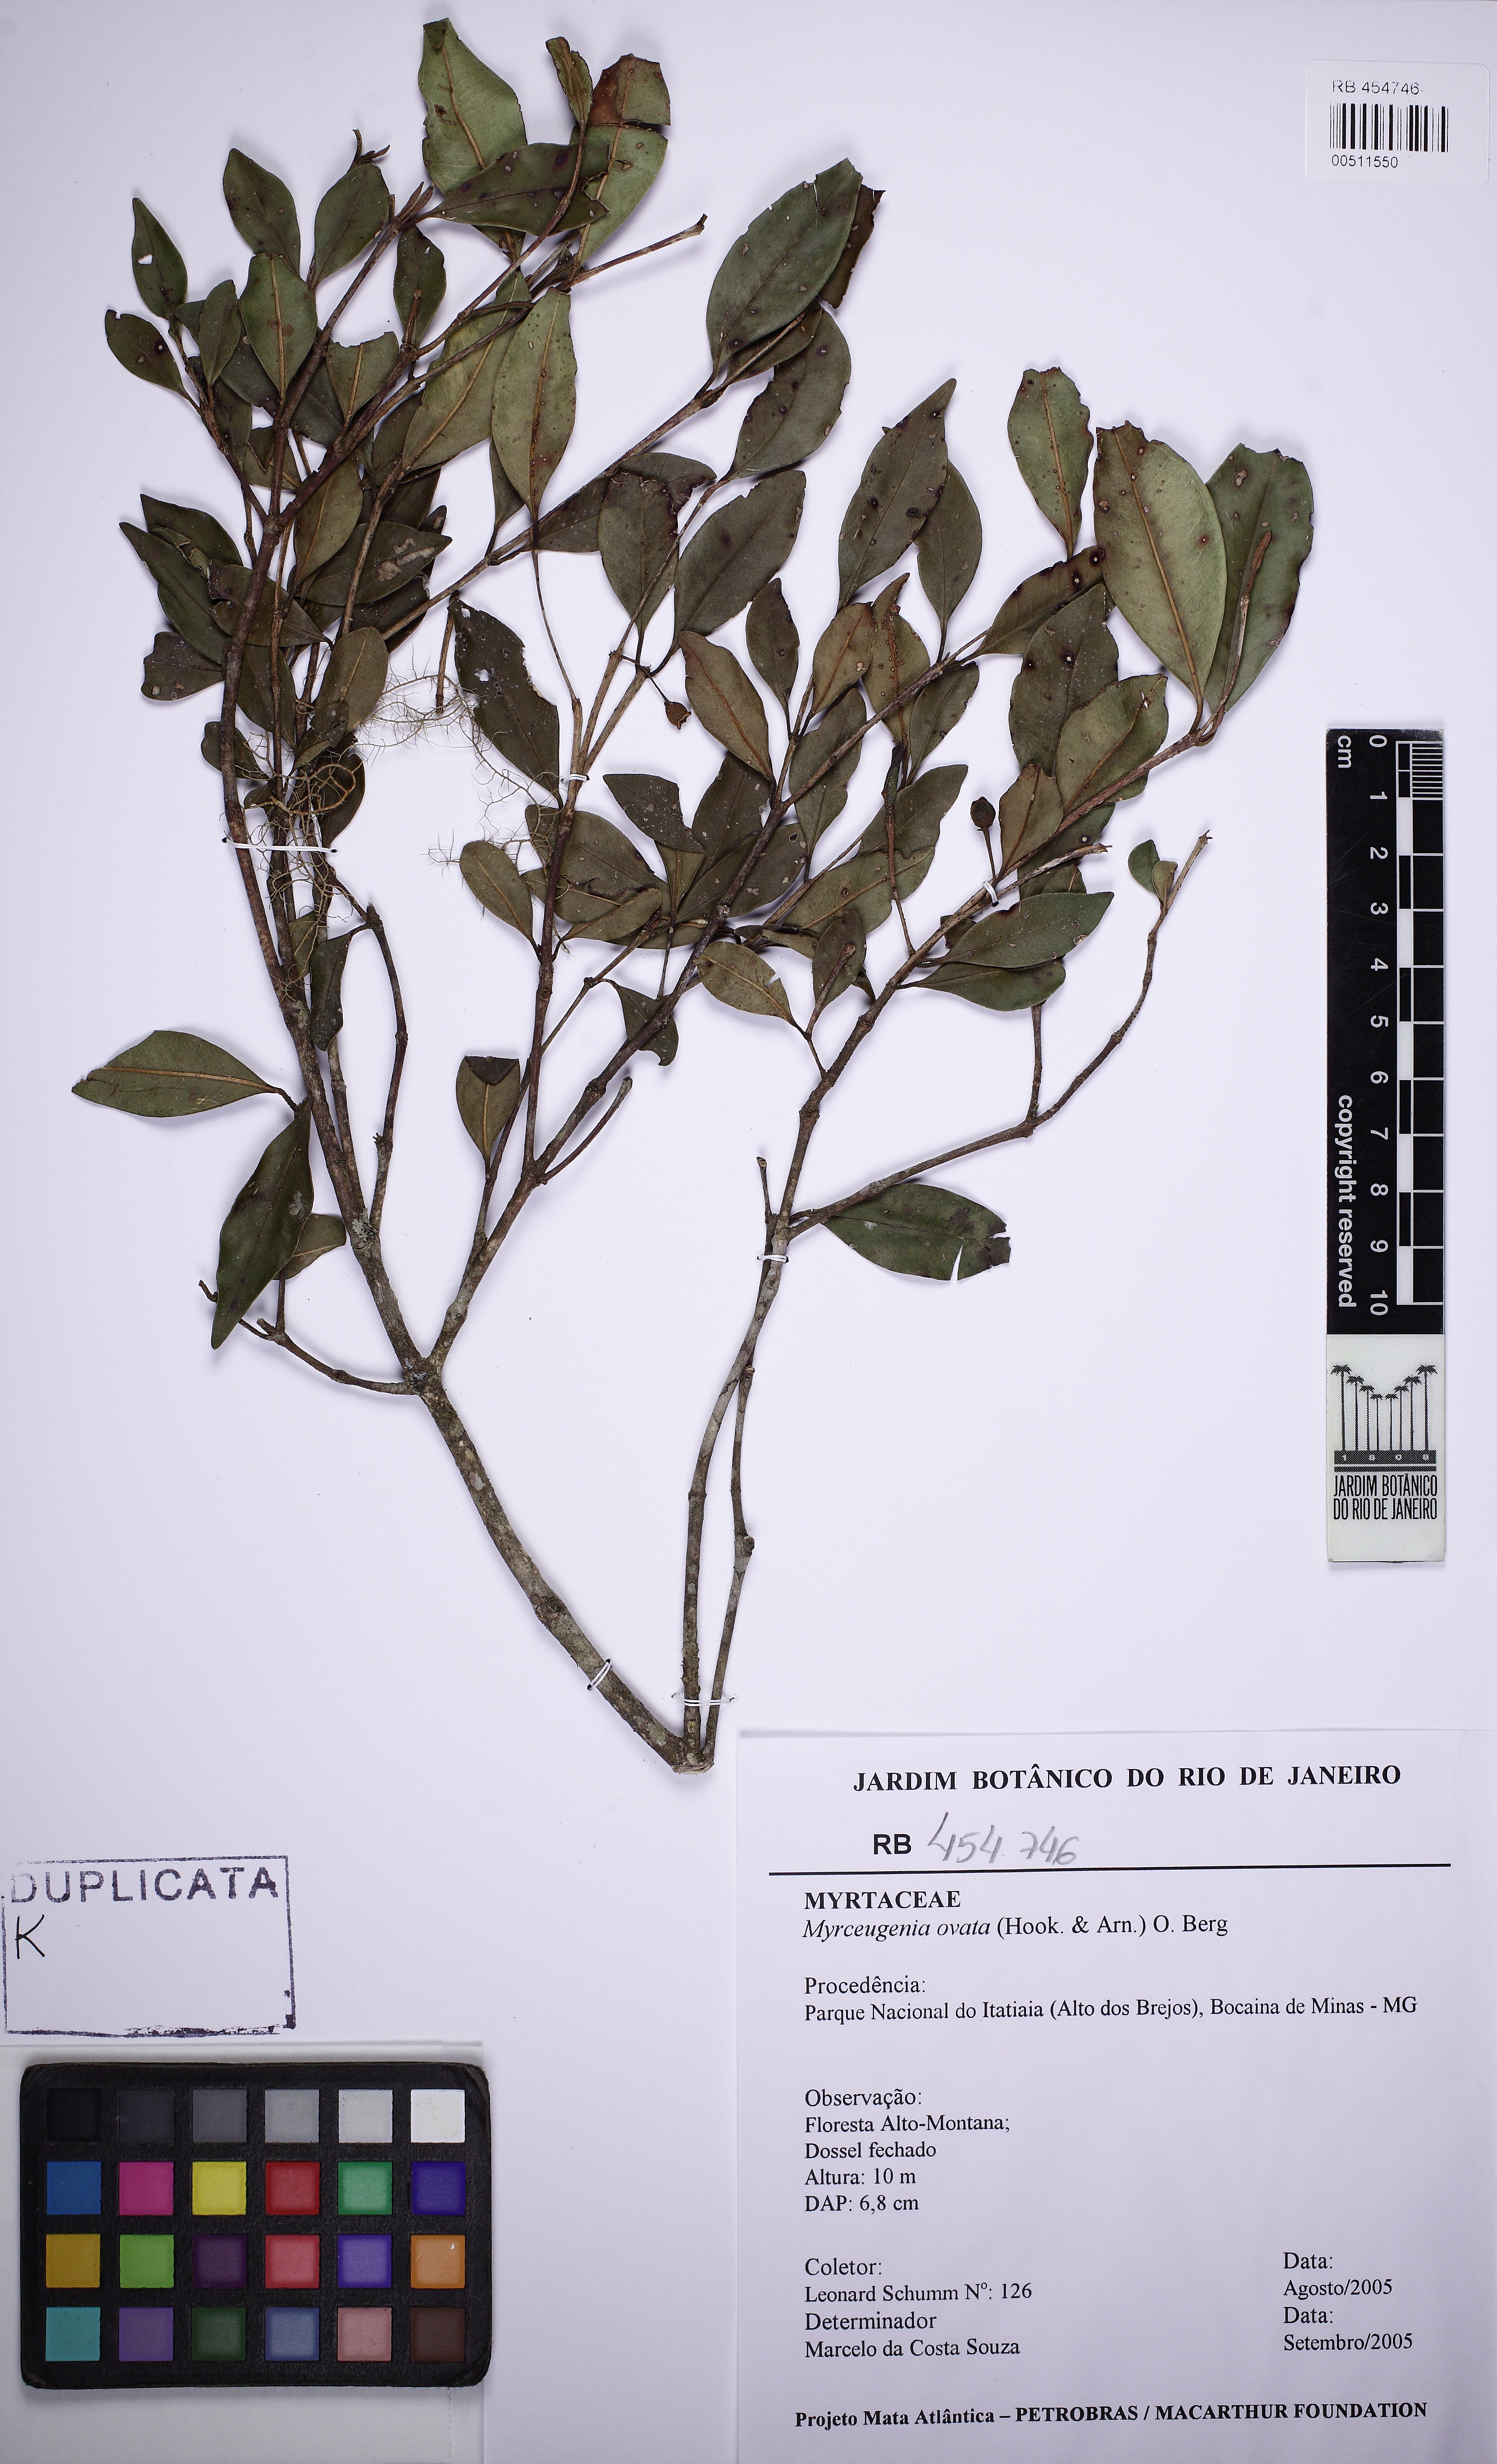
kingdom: Plantae
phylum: Tracheophyta
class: Magnoliopsida
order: Myrtales
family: Myrtaceae
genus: Myrceugenia
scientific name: Myrceugenia ovalifolia
